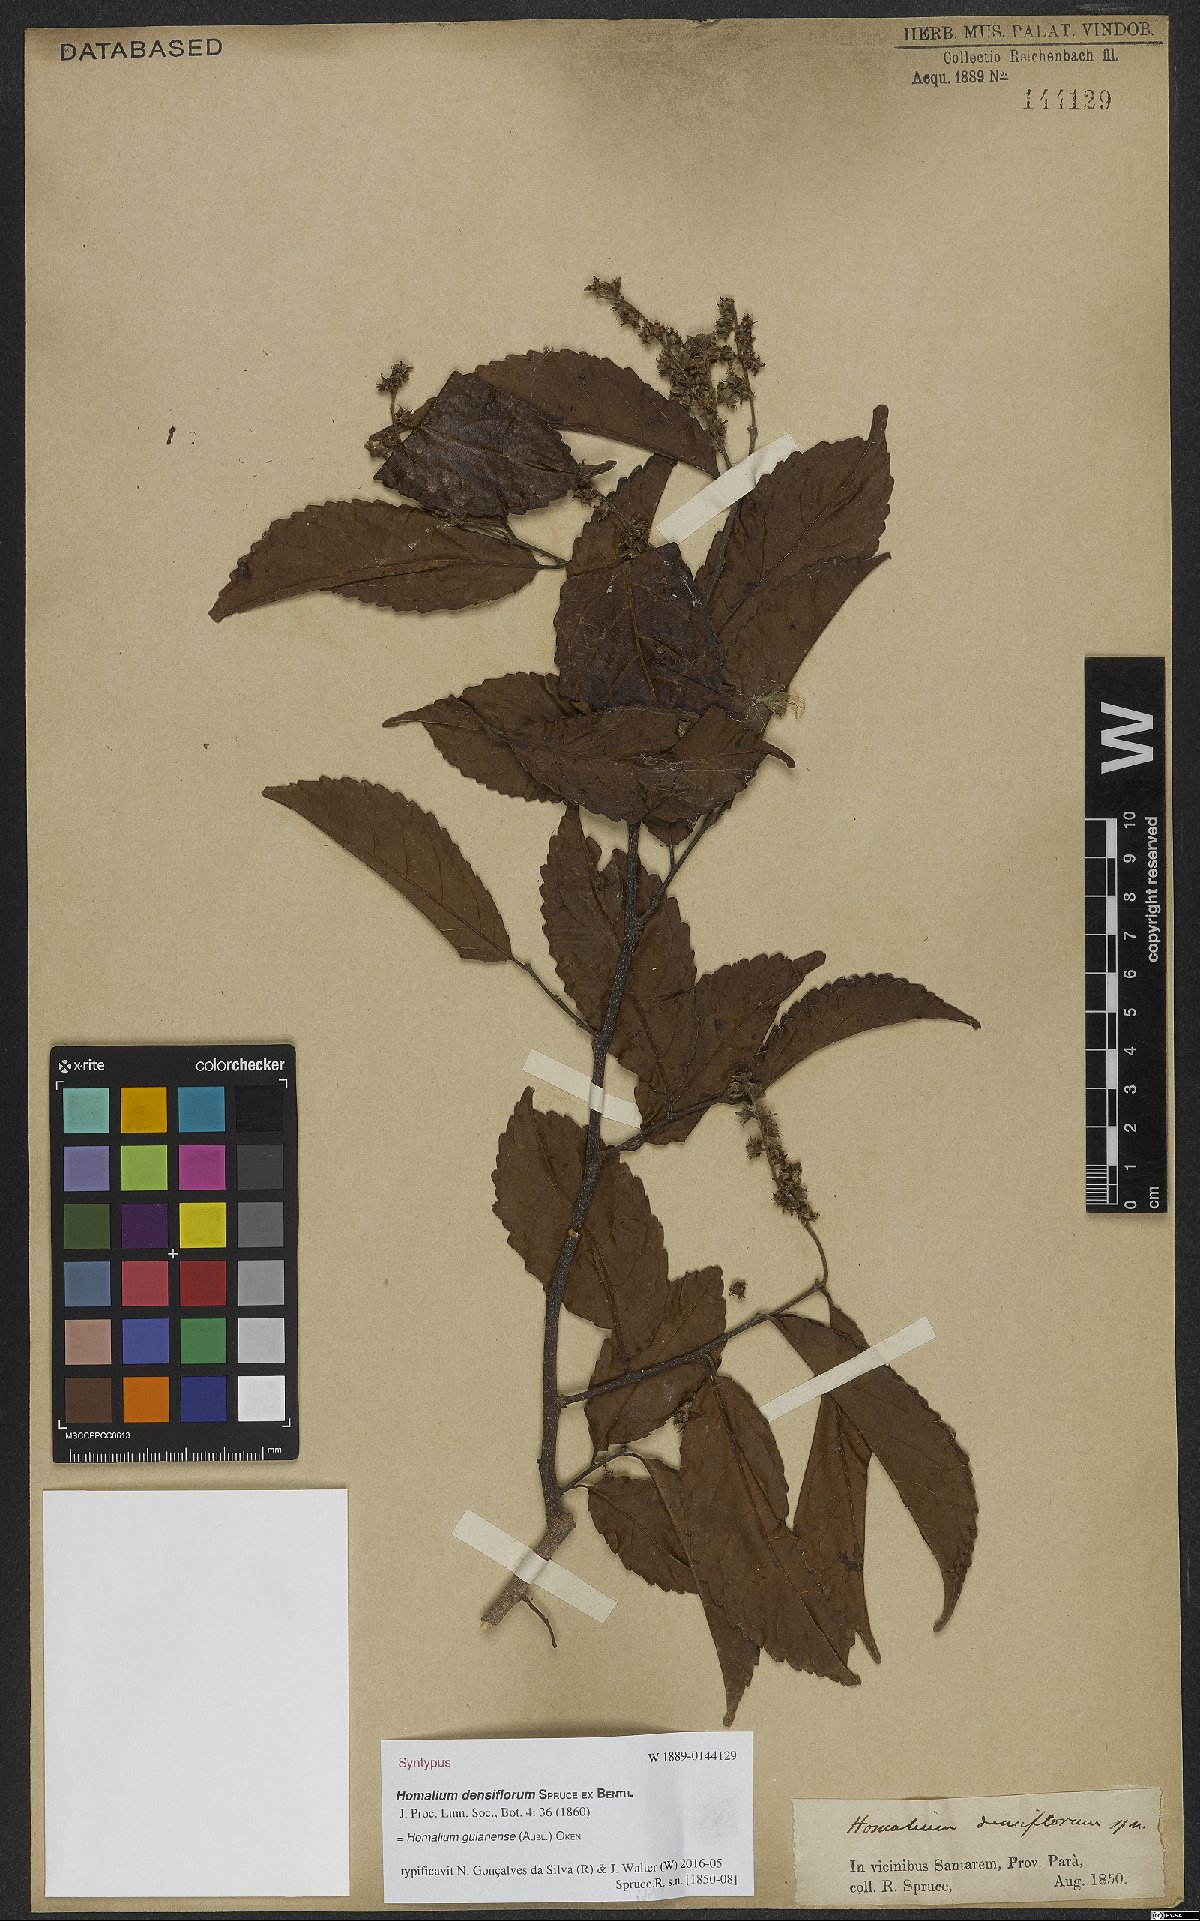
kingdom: Plantae
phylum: Tracheophyta
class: Magnoliopsida
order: Malpighiales
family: Salicaceae
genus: Homalium
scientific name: Homalium guianense
